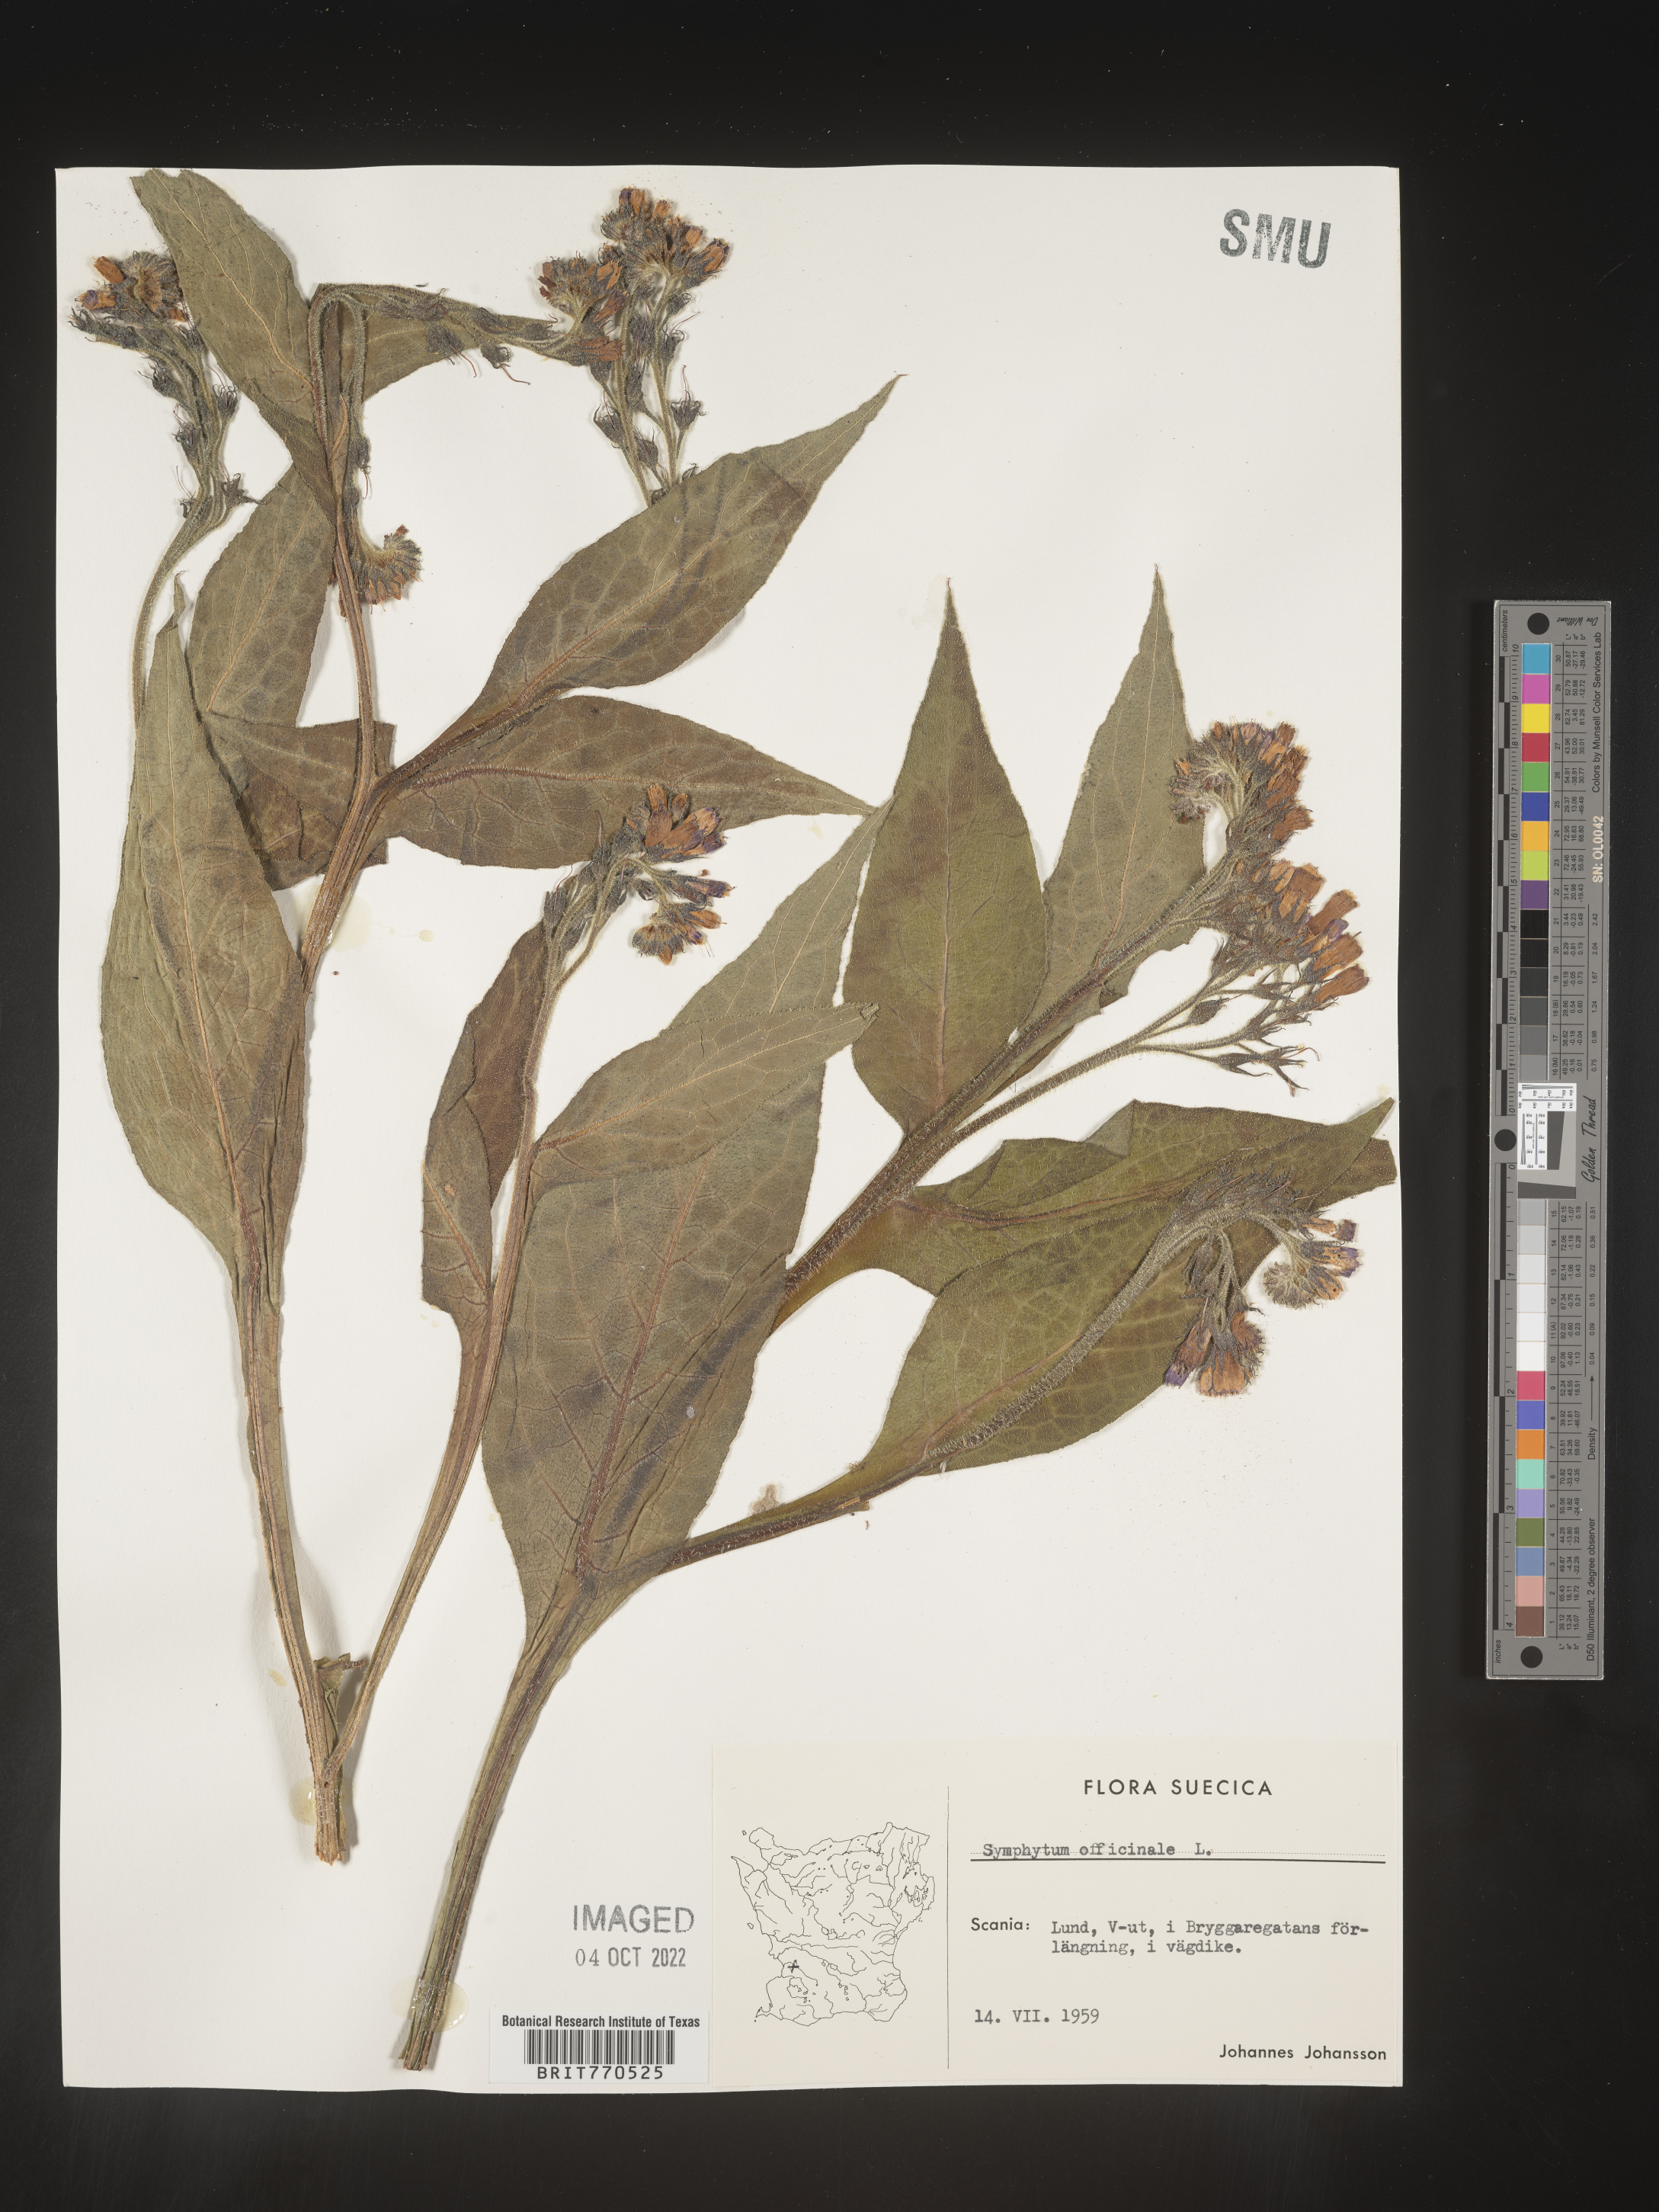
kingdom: Plantae
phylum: Tracheophyta
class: Magnoliopsida
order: Boraginales
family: Boraginaceae
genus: Symphytum
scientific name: Symphytum
